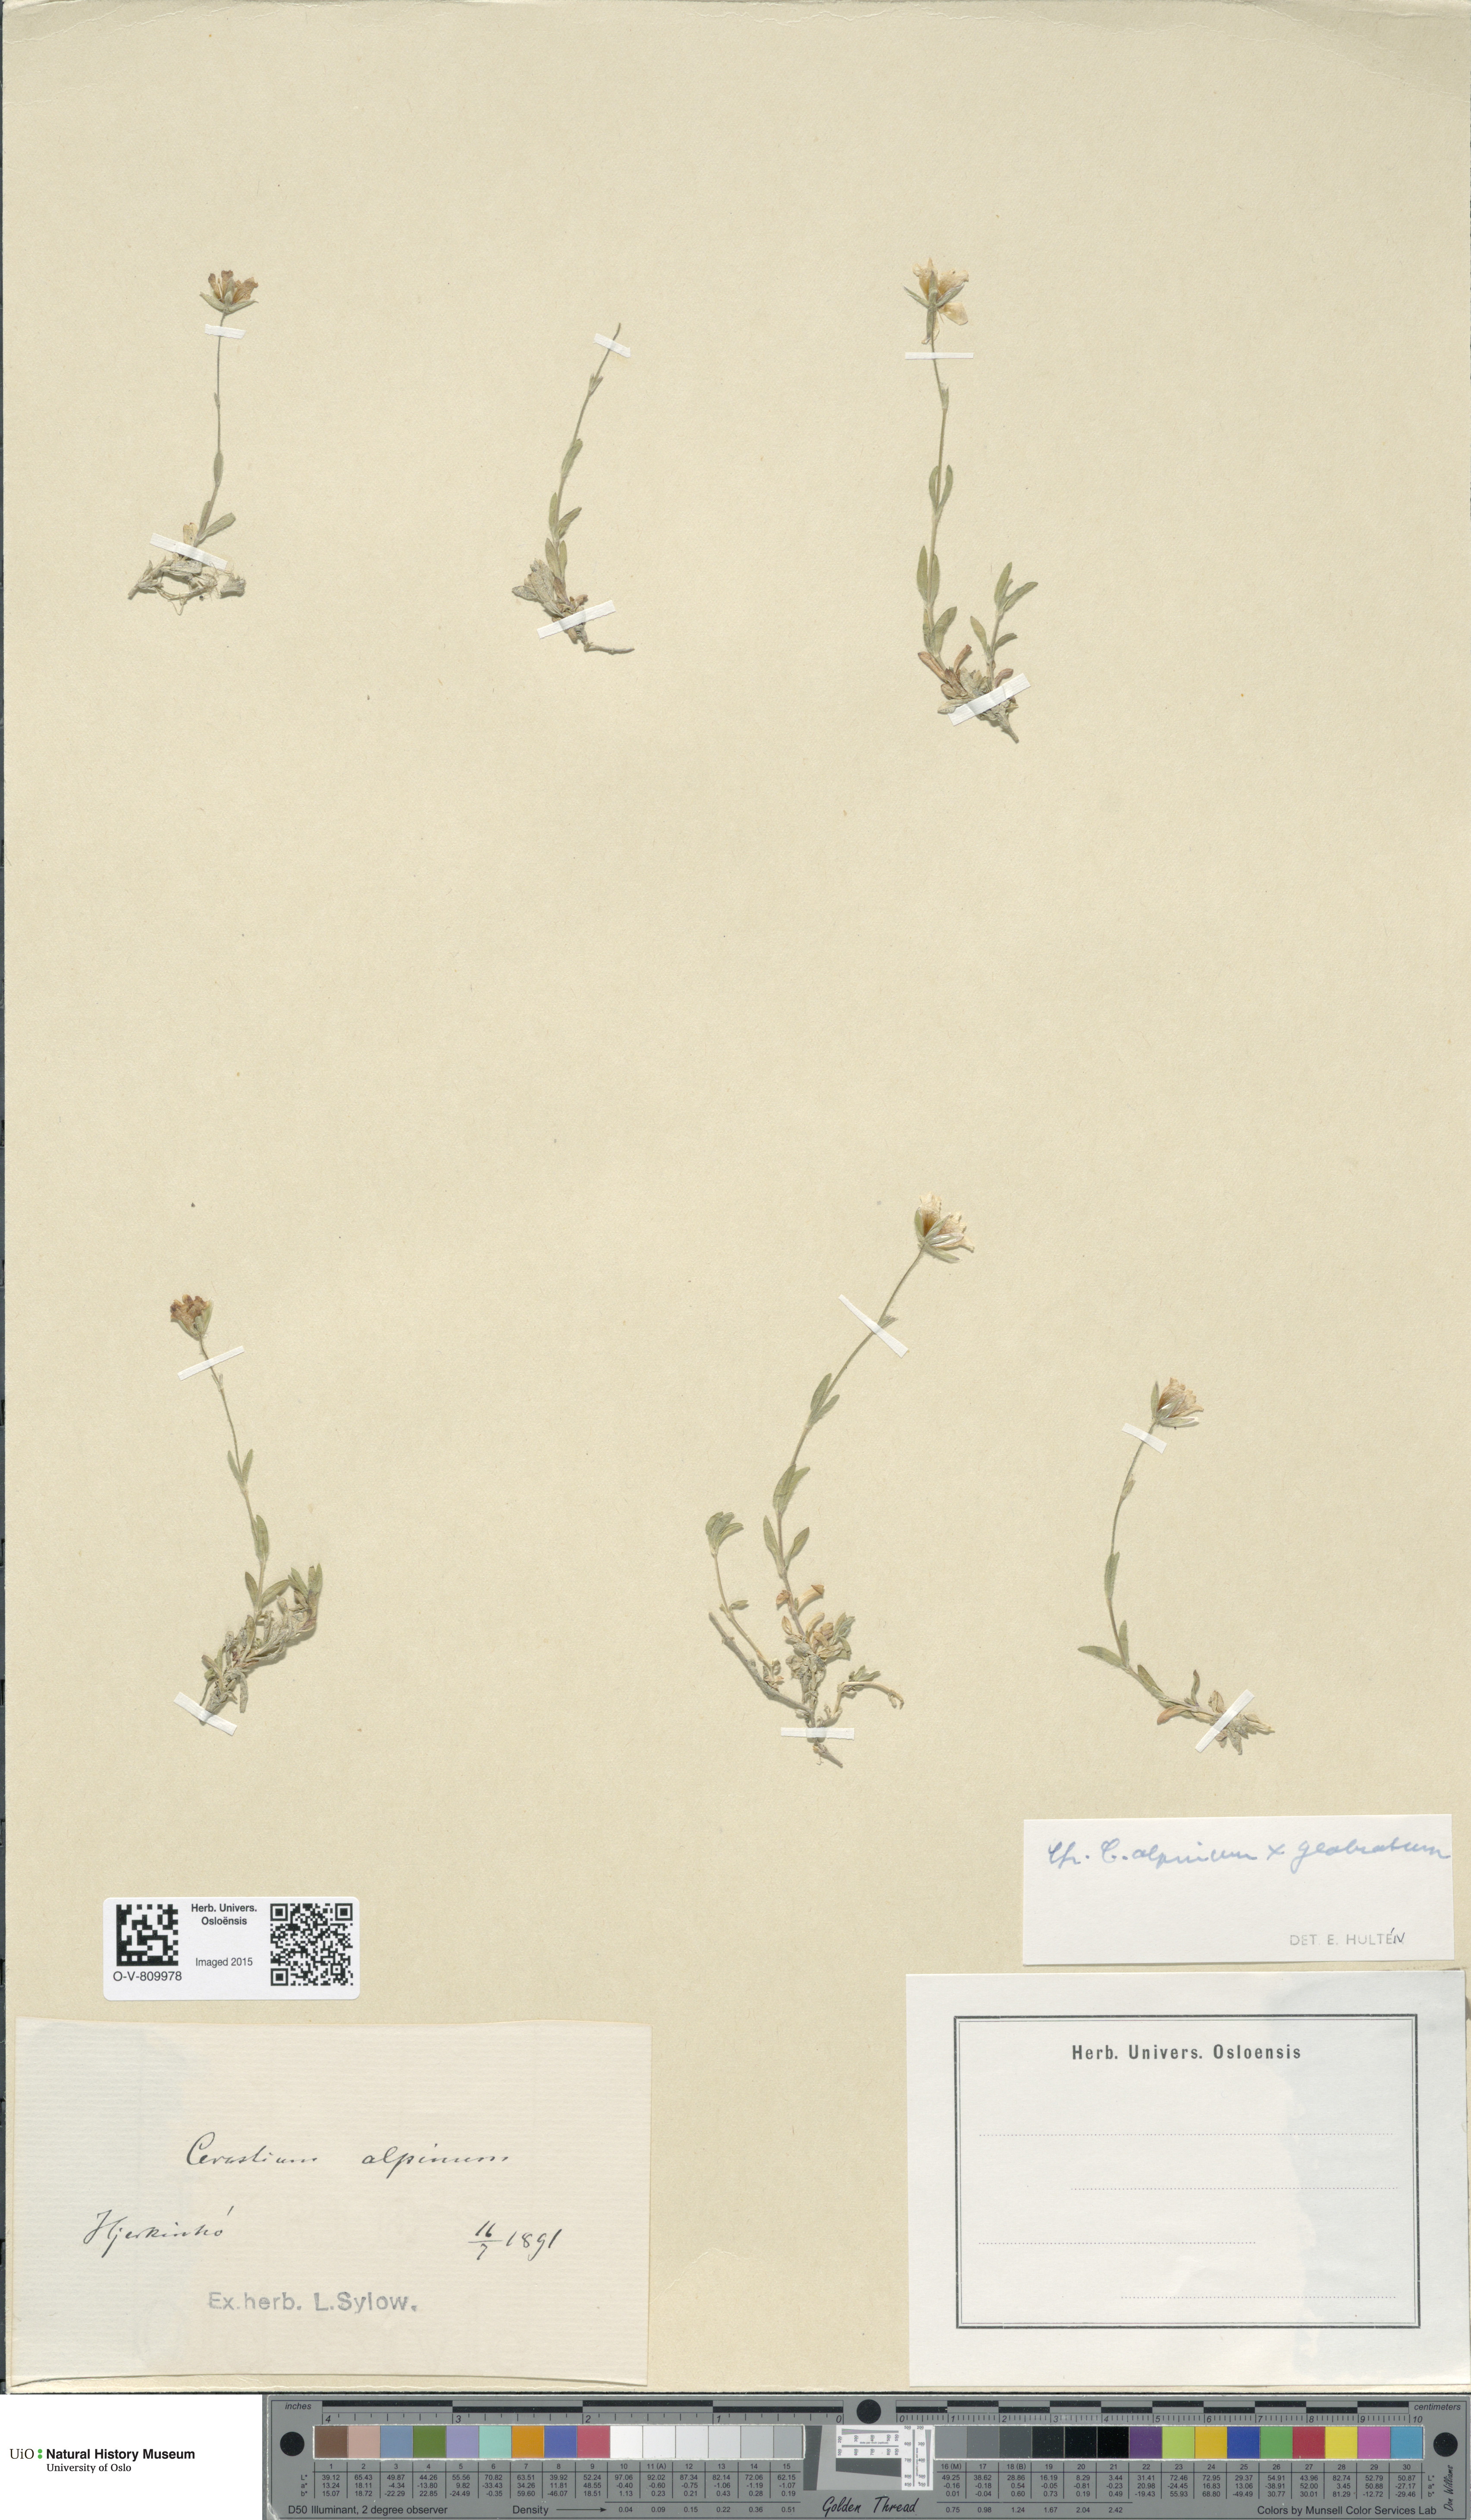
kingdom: Plantae
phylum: Tracheophyta
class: Magnoliopsida
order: Caryophyllales
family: Caryophyllaceae
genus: Cerastium
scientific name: Cerastium
